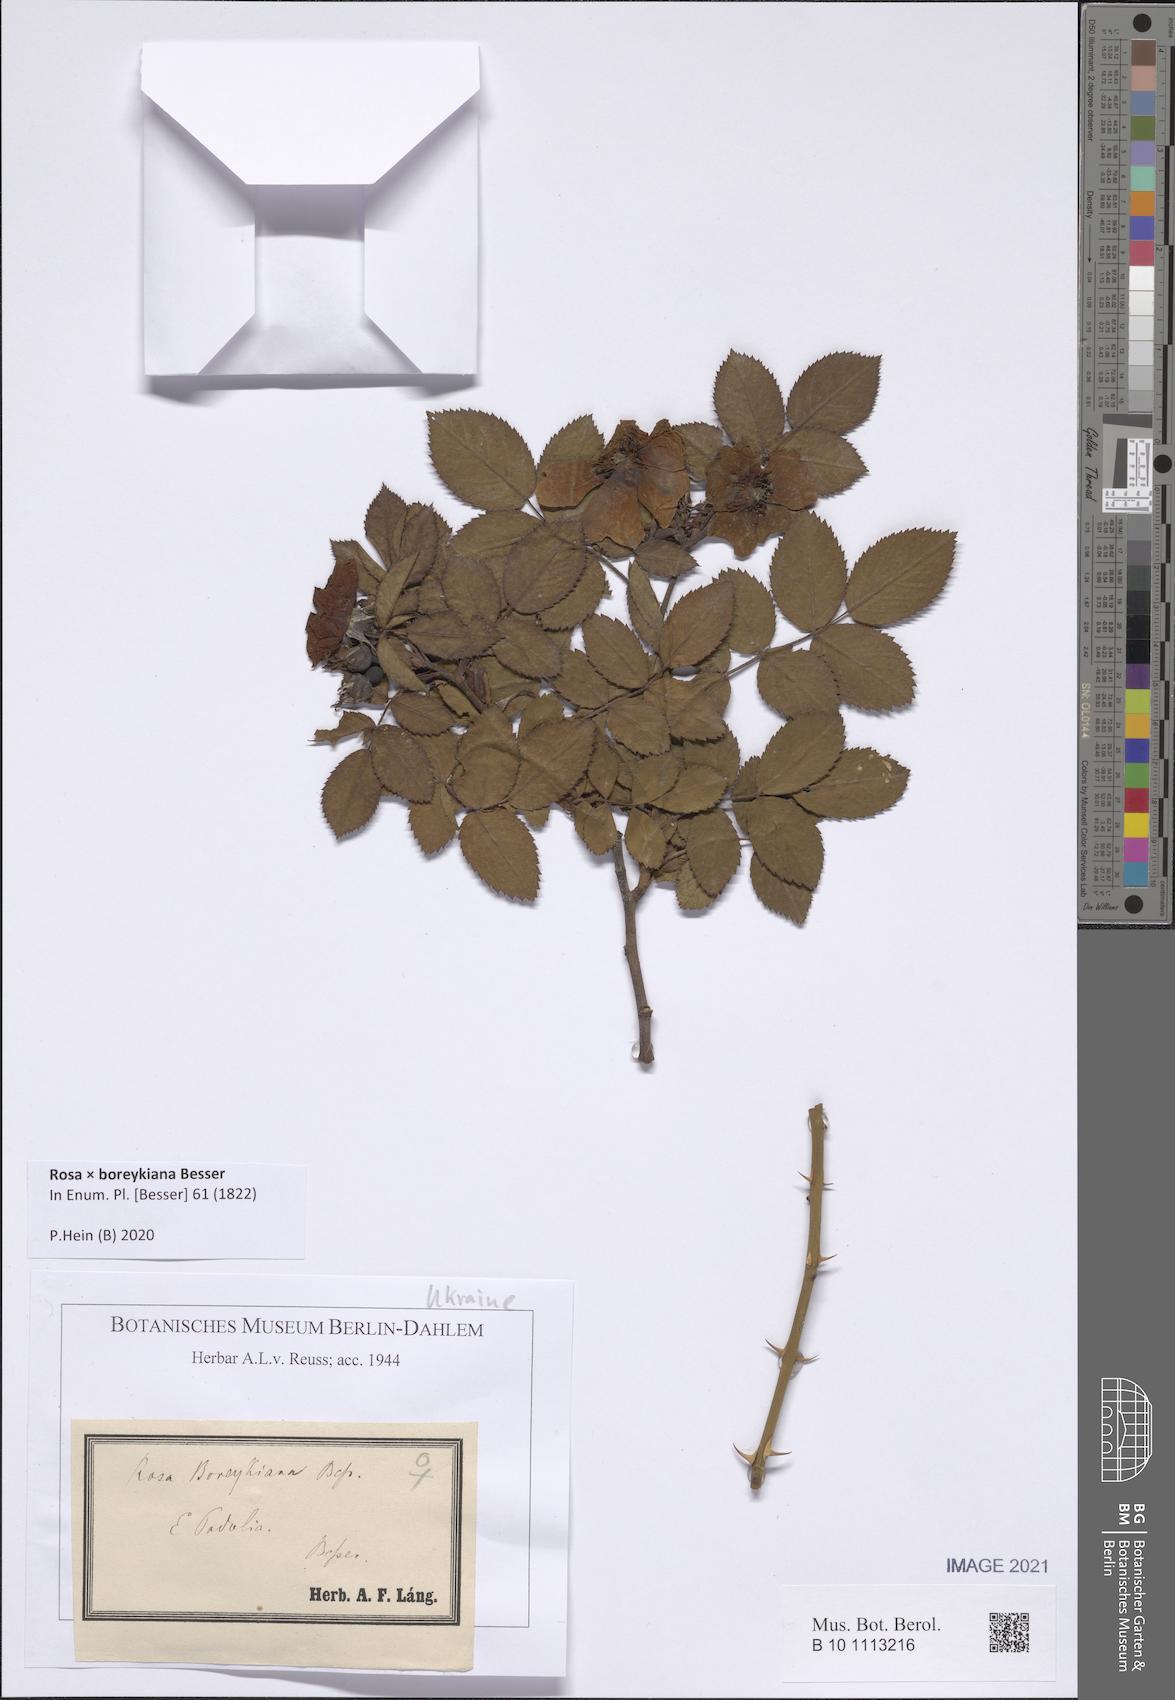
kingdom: Plantae
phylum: Tracheophyta
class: Magnoliopsida
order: Rosales
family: Rosaceae
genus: Rosa
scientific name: Rosa boreykiana
